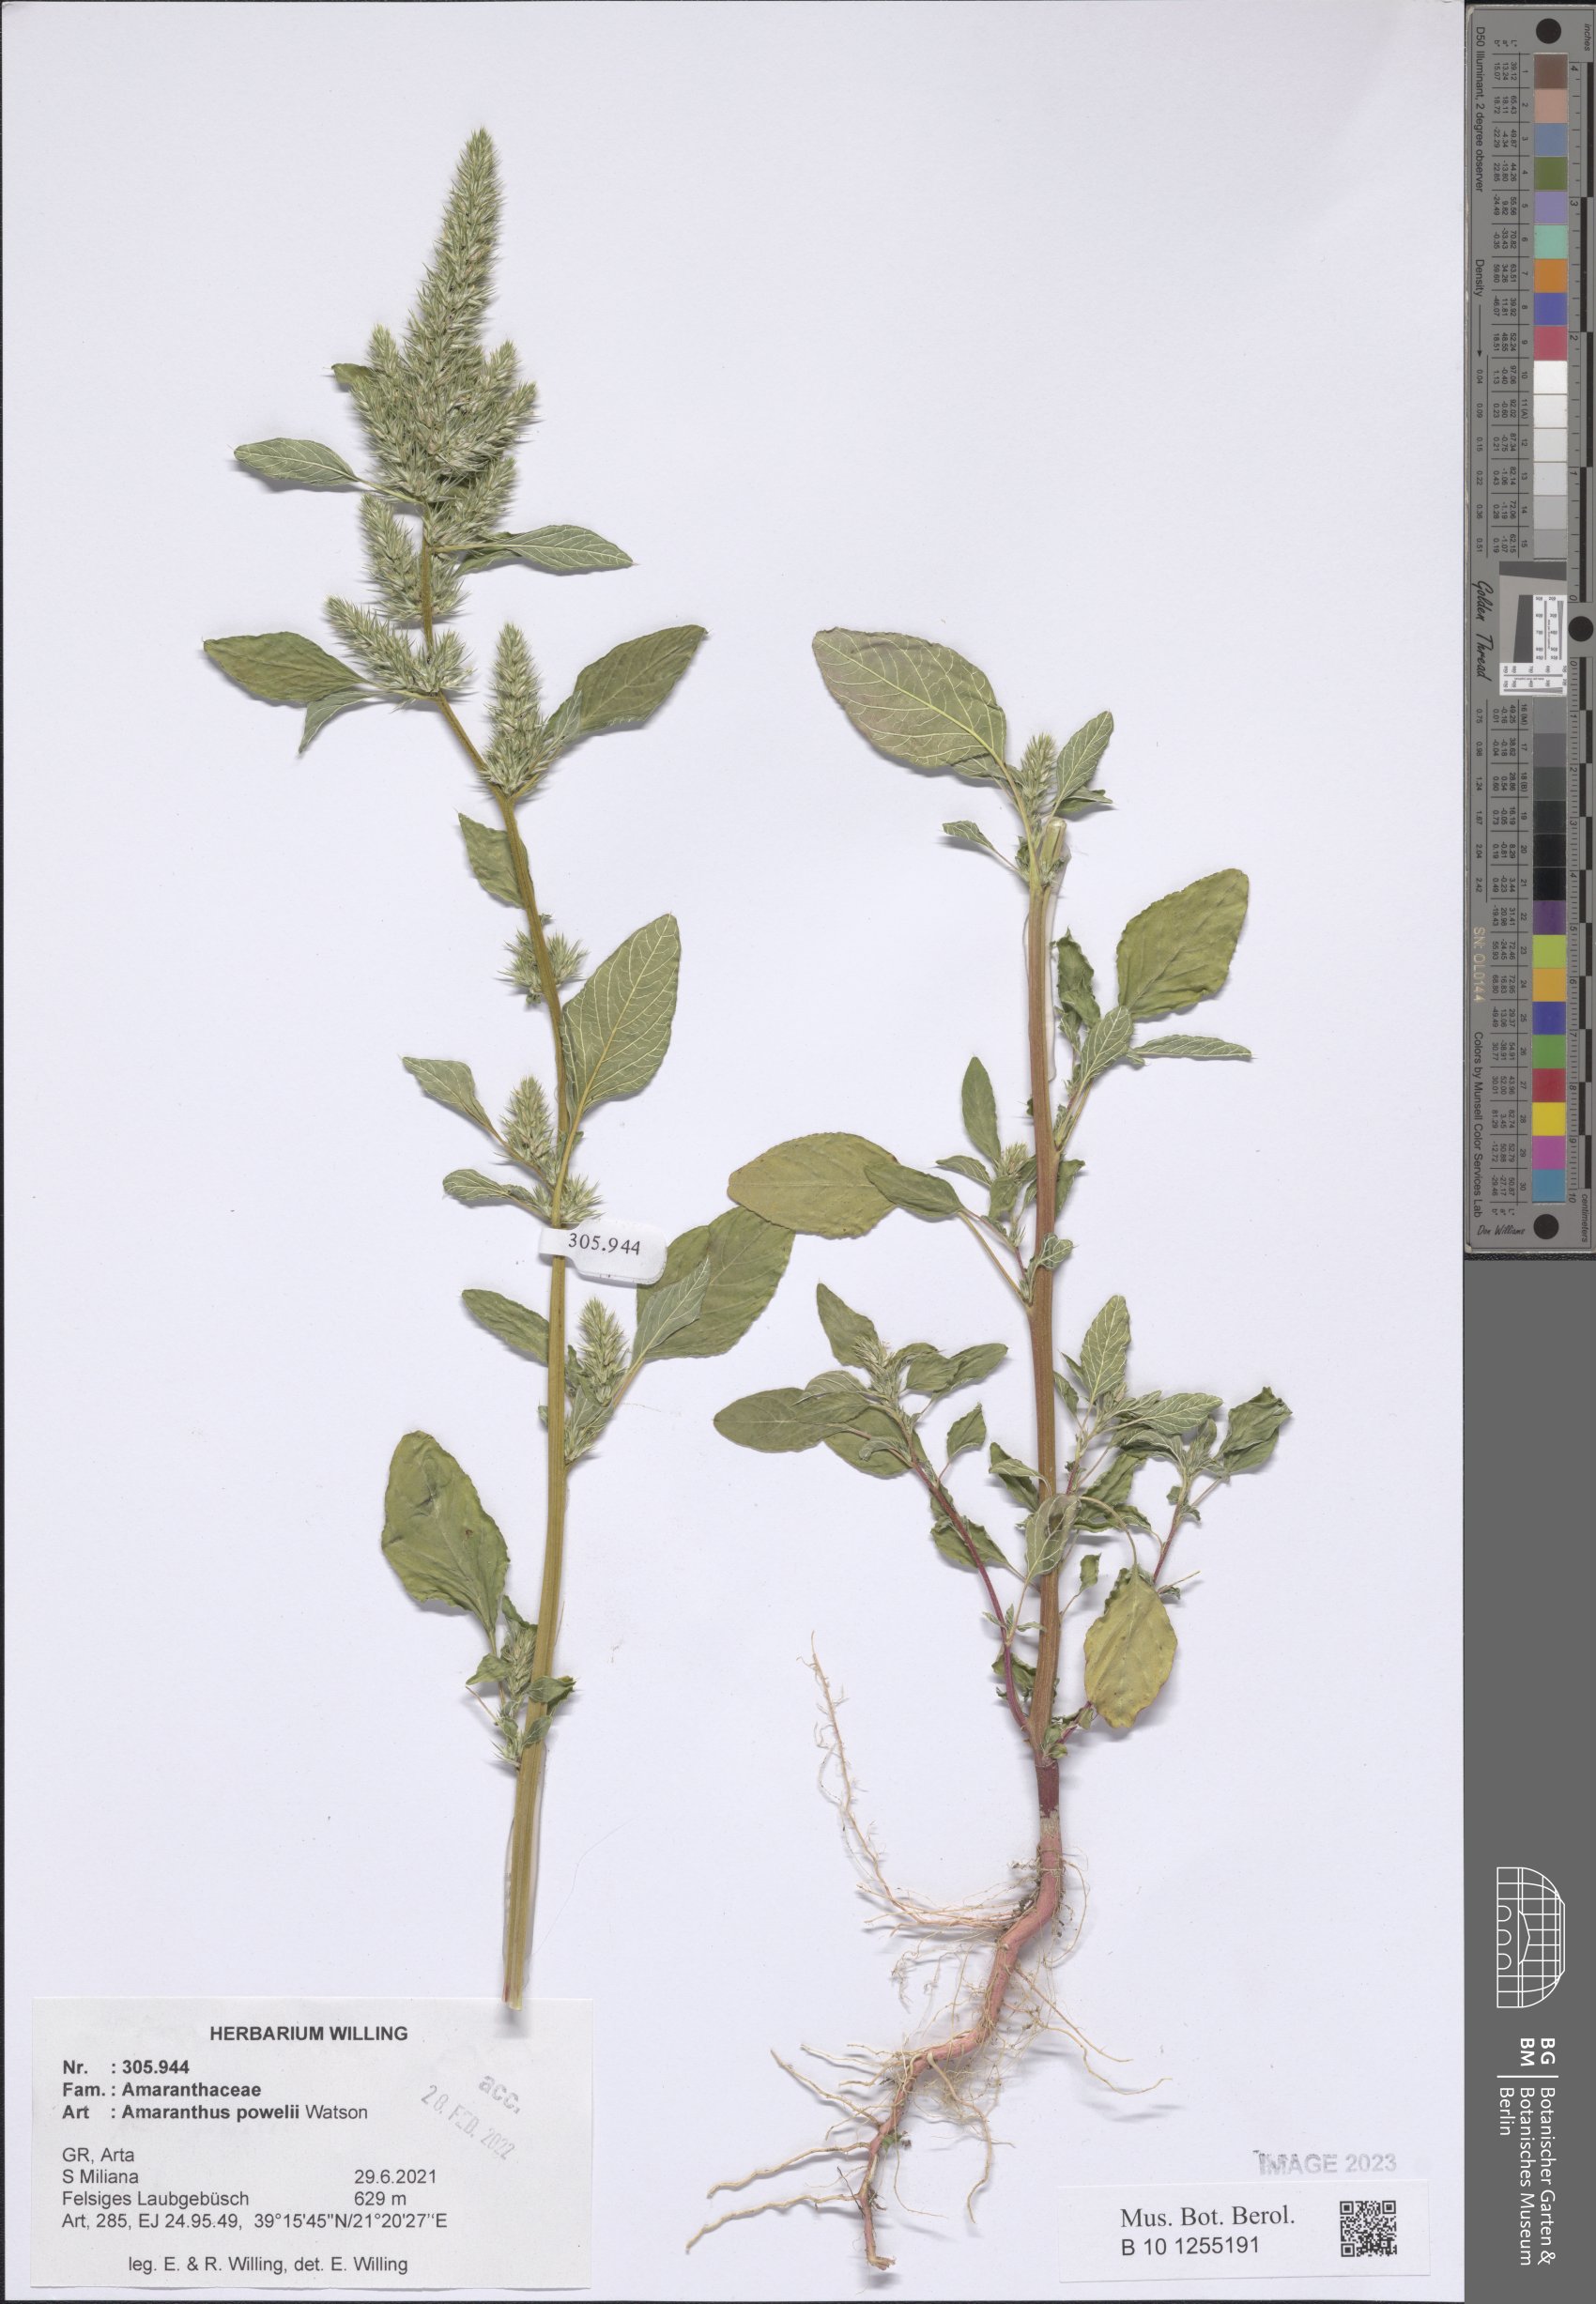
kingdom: Plantae
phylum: Tracheophyta
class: Magnoliopsida
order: Caryophyllales
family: Amaranthaceae
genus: Amaranthus
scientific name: Amaranthus powellii
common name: Powell's amaranth
